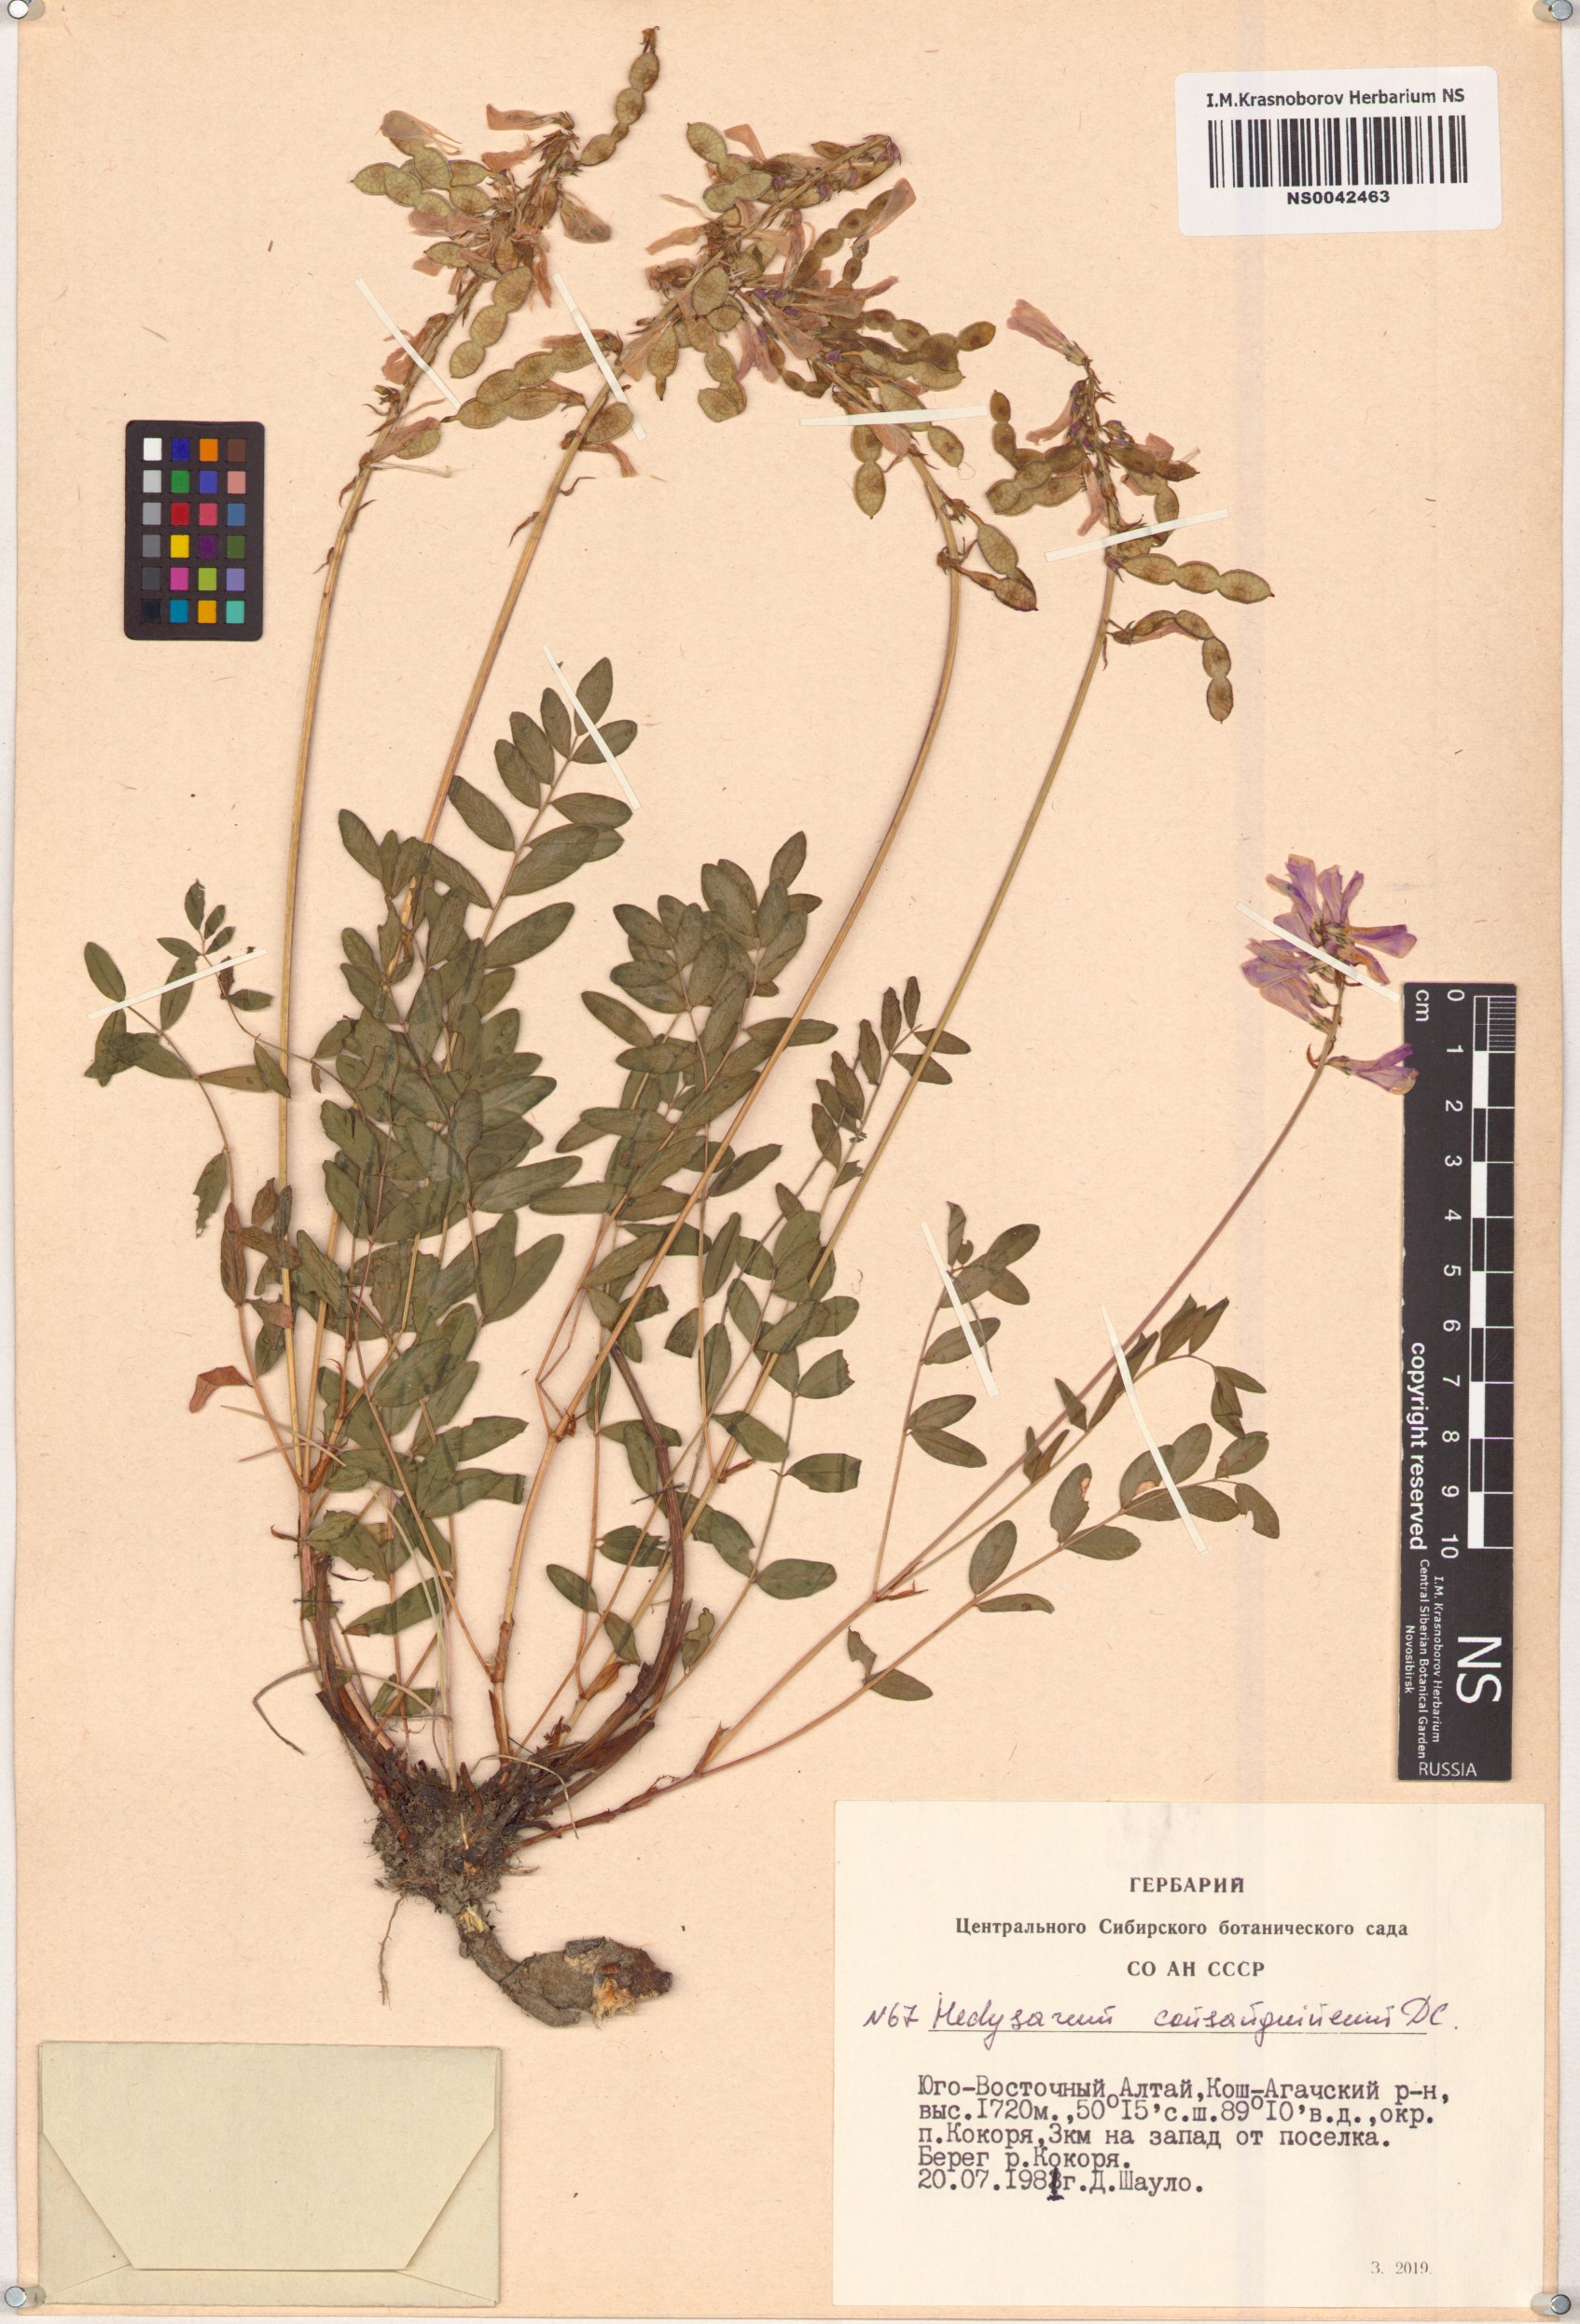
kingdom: Plantae
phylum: Tracheophyta
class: Magnoliopsida
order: Fabales
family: Fabaceae
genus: Hedysarum
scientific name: Hedysarum consanguineum
